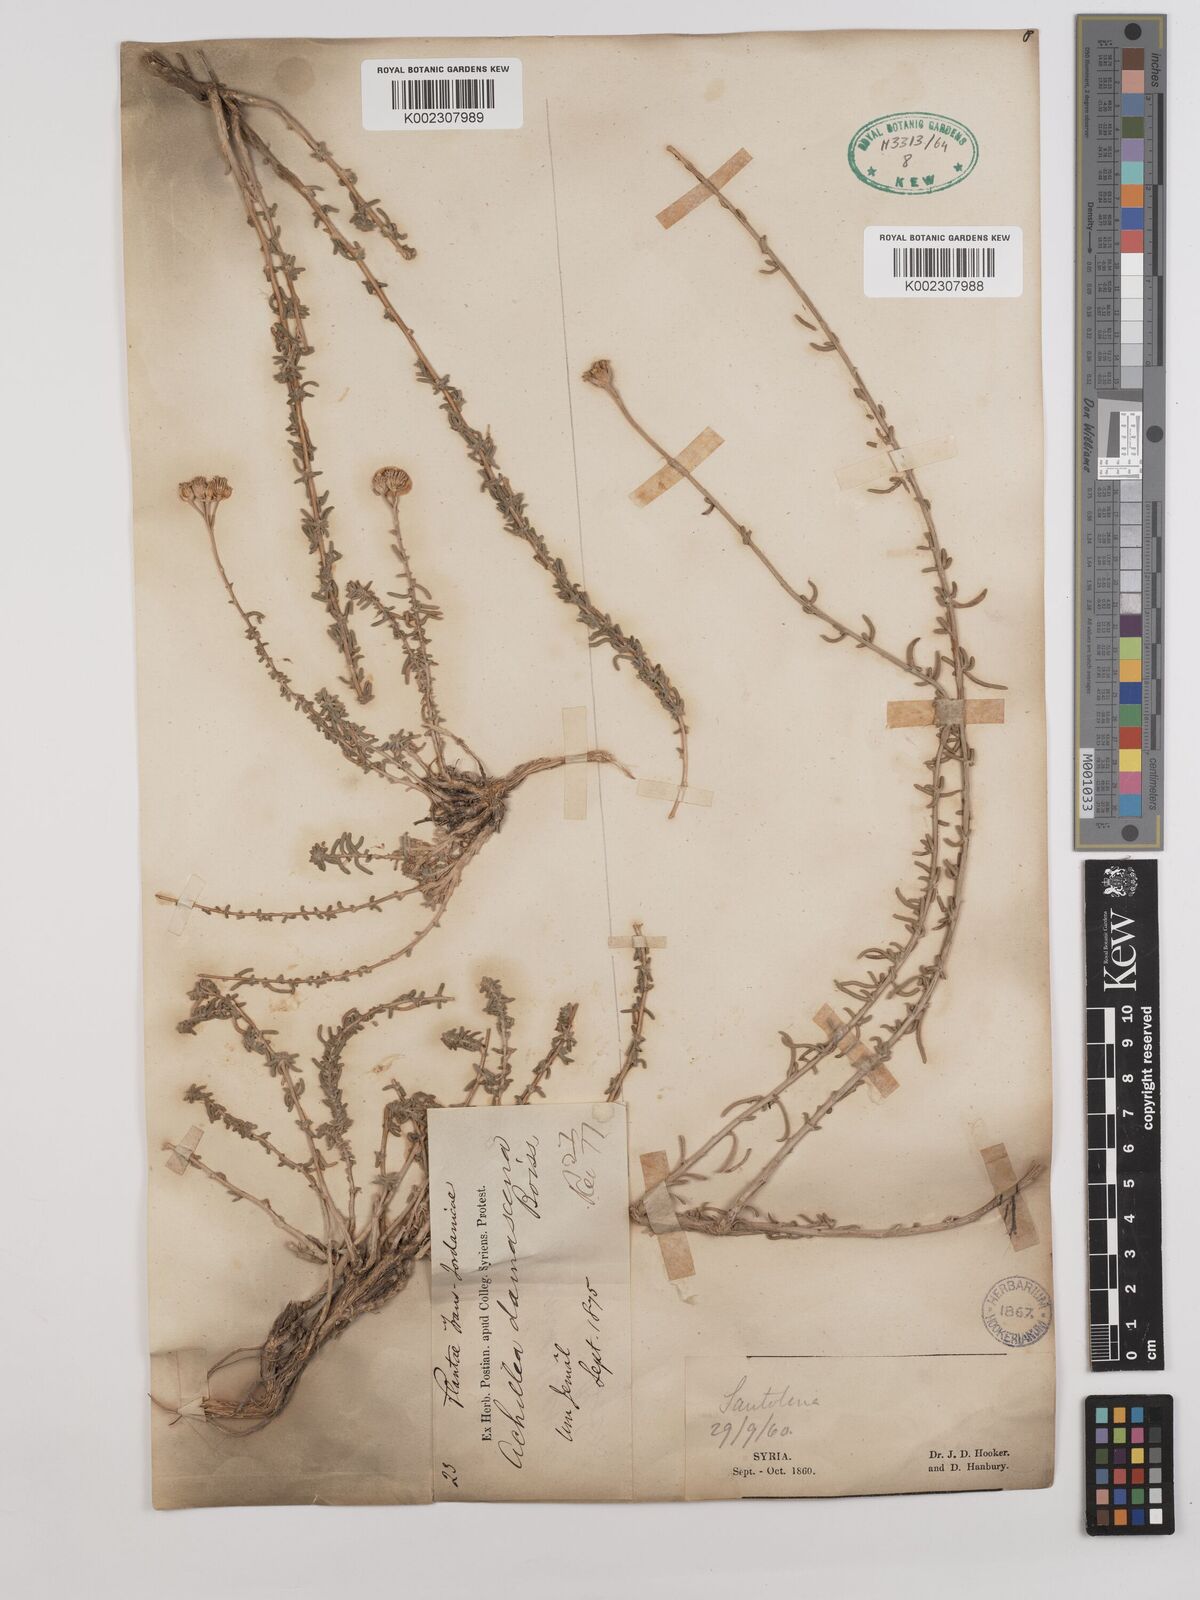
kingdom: Plantae
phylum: Tracheophyta
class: Magnoliopsida
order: Asterales
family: Asteraceae
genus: Achillea
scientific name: Achillea falcata
